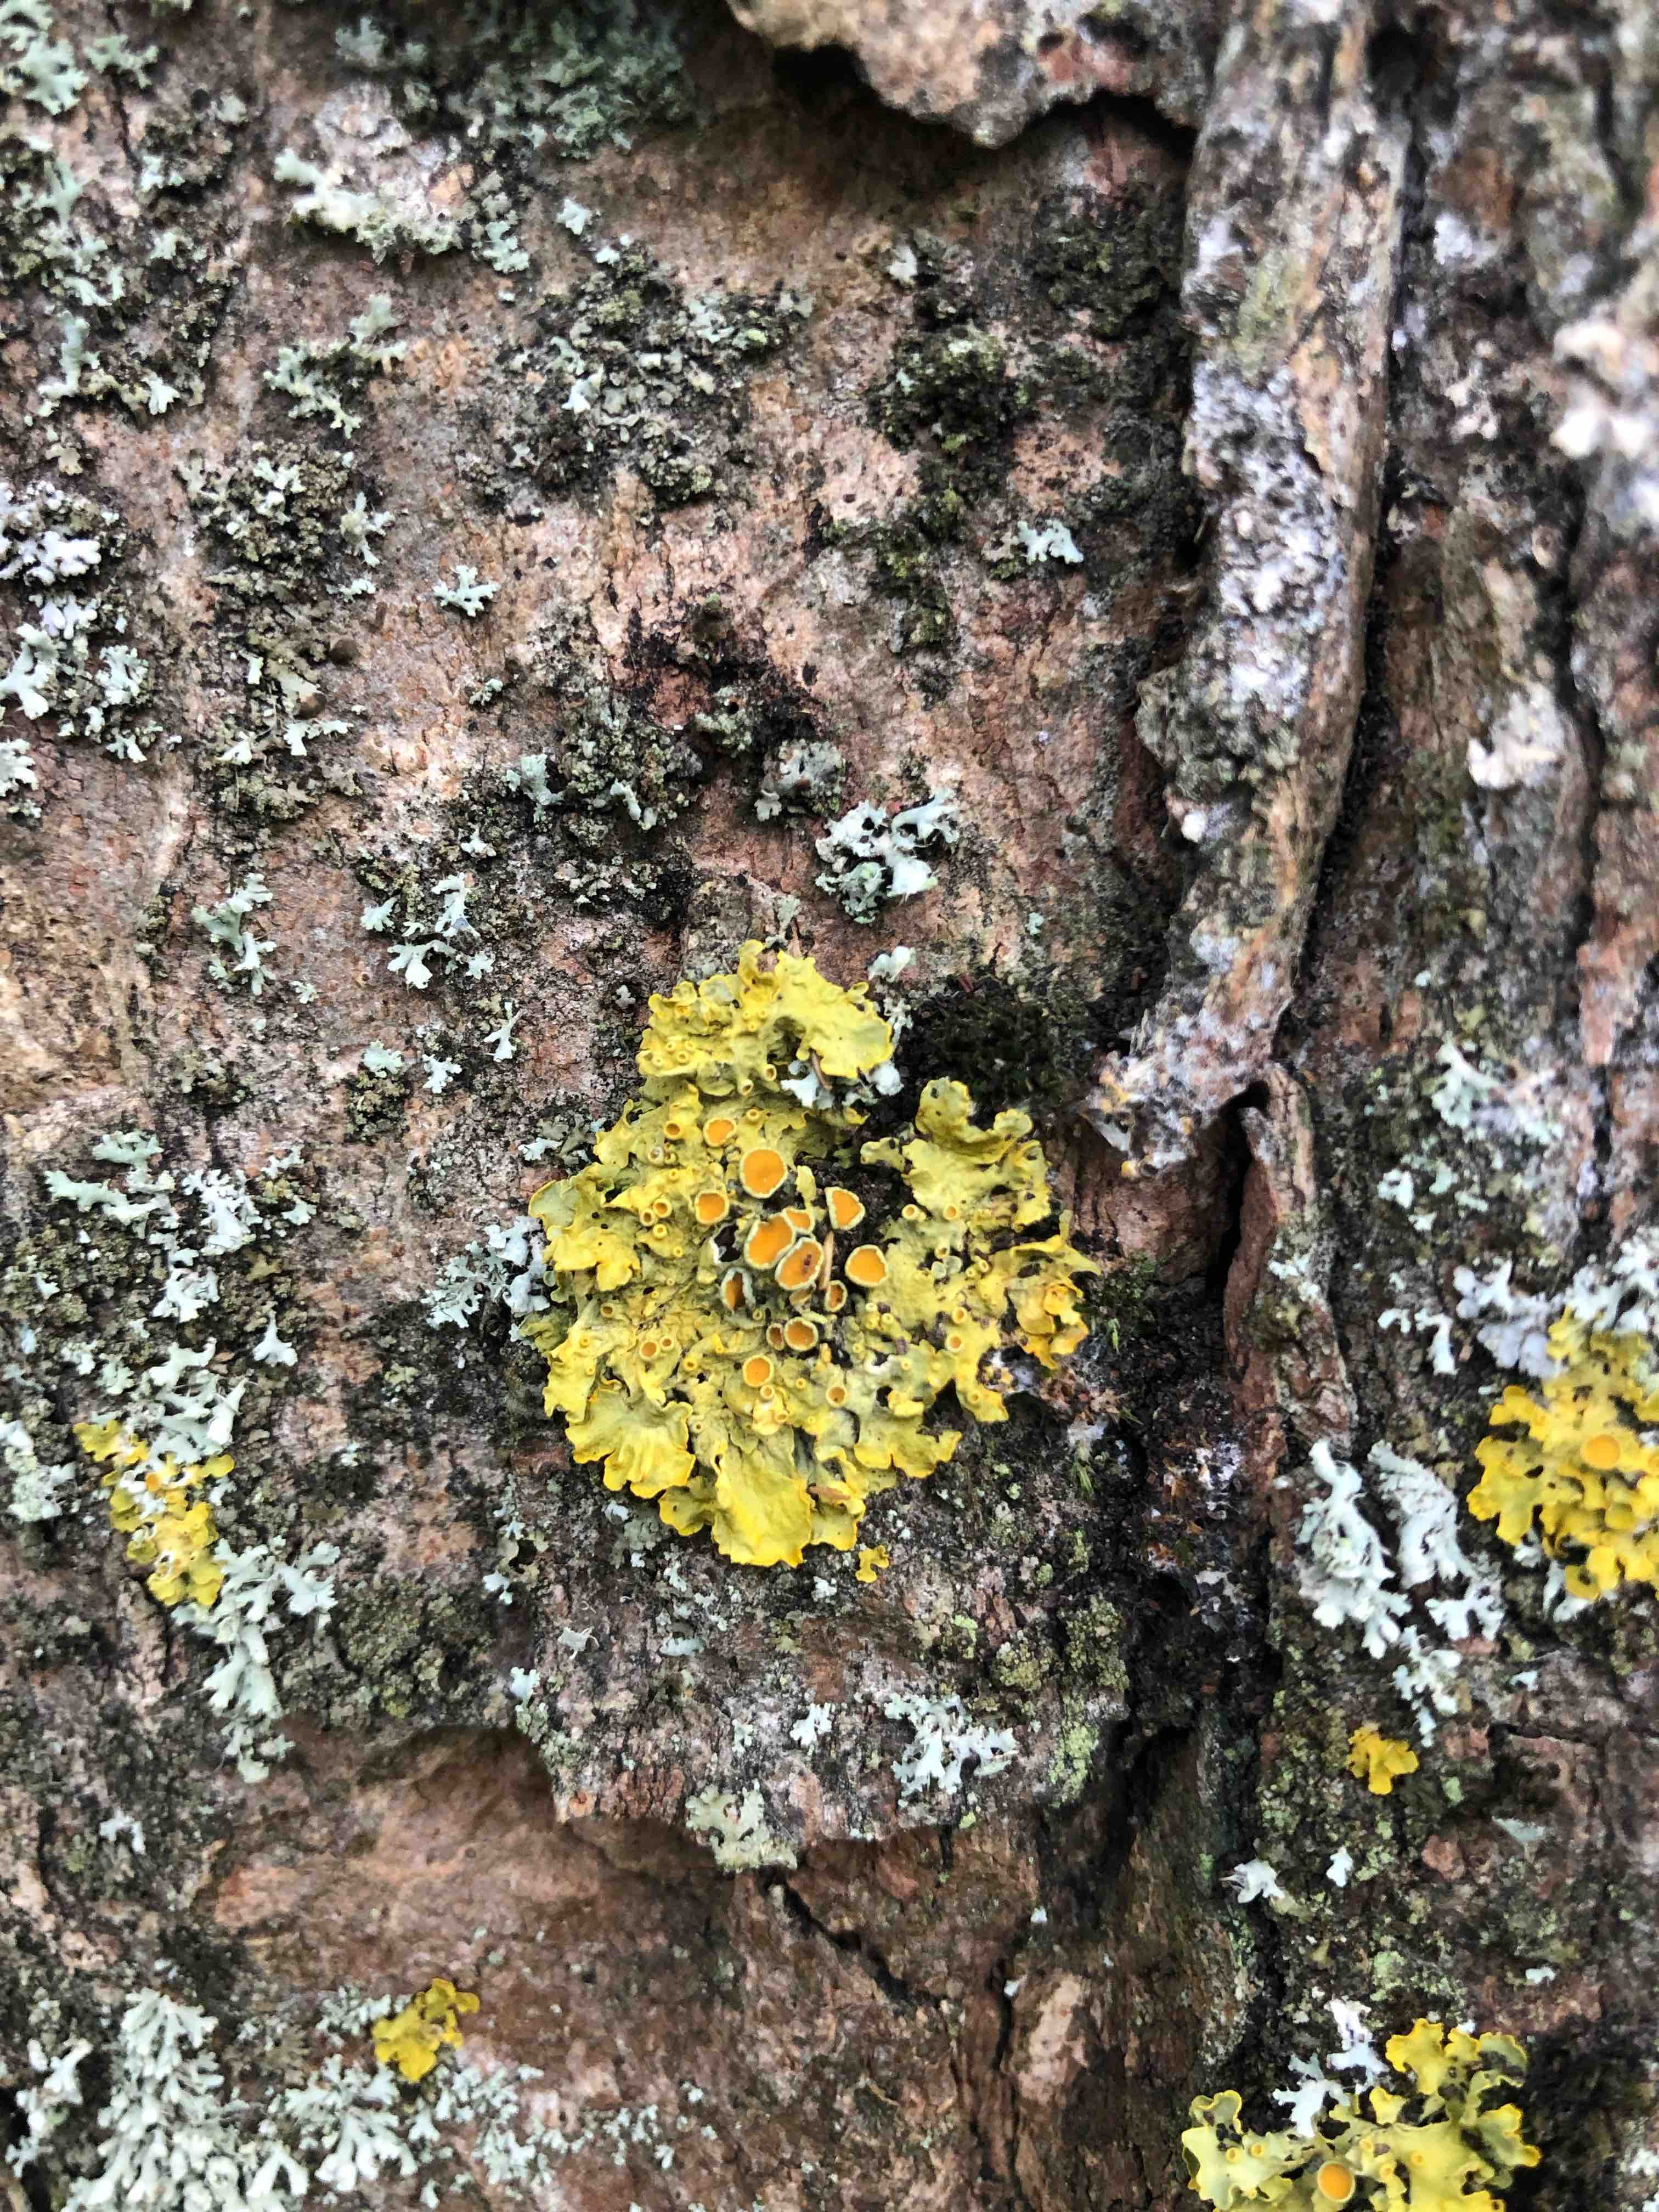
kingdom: Fungi
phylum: Ascomycota
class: Lecanoromycetes
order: Teloschistales
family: Teloschistaceae
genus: Xanthoria
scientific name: Xanthoria parietina
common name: almindelig væggelav
